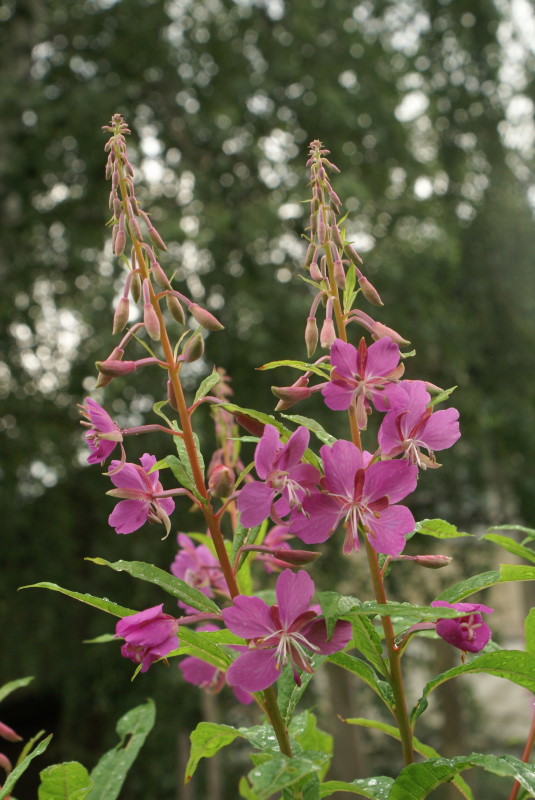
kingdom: Plantae
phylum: Tracheophyta
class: Magnoliopsida
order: Myrtales
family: Onagraceae
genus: Chamaenerion
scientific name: Chamaenerion angustifolium
